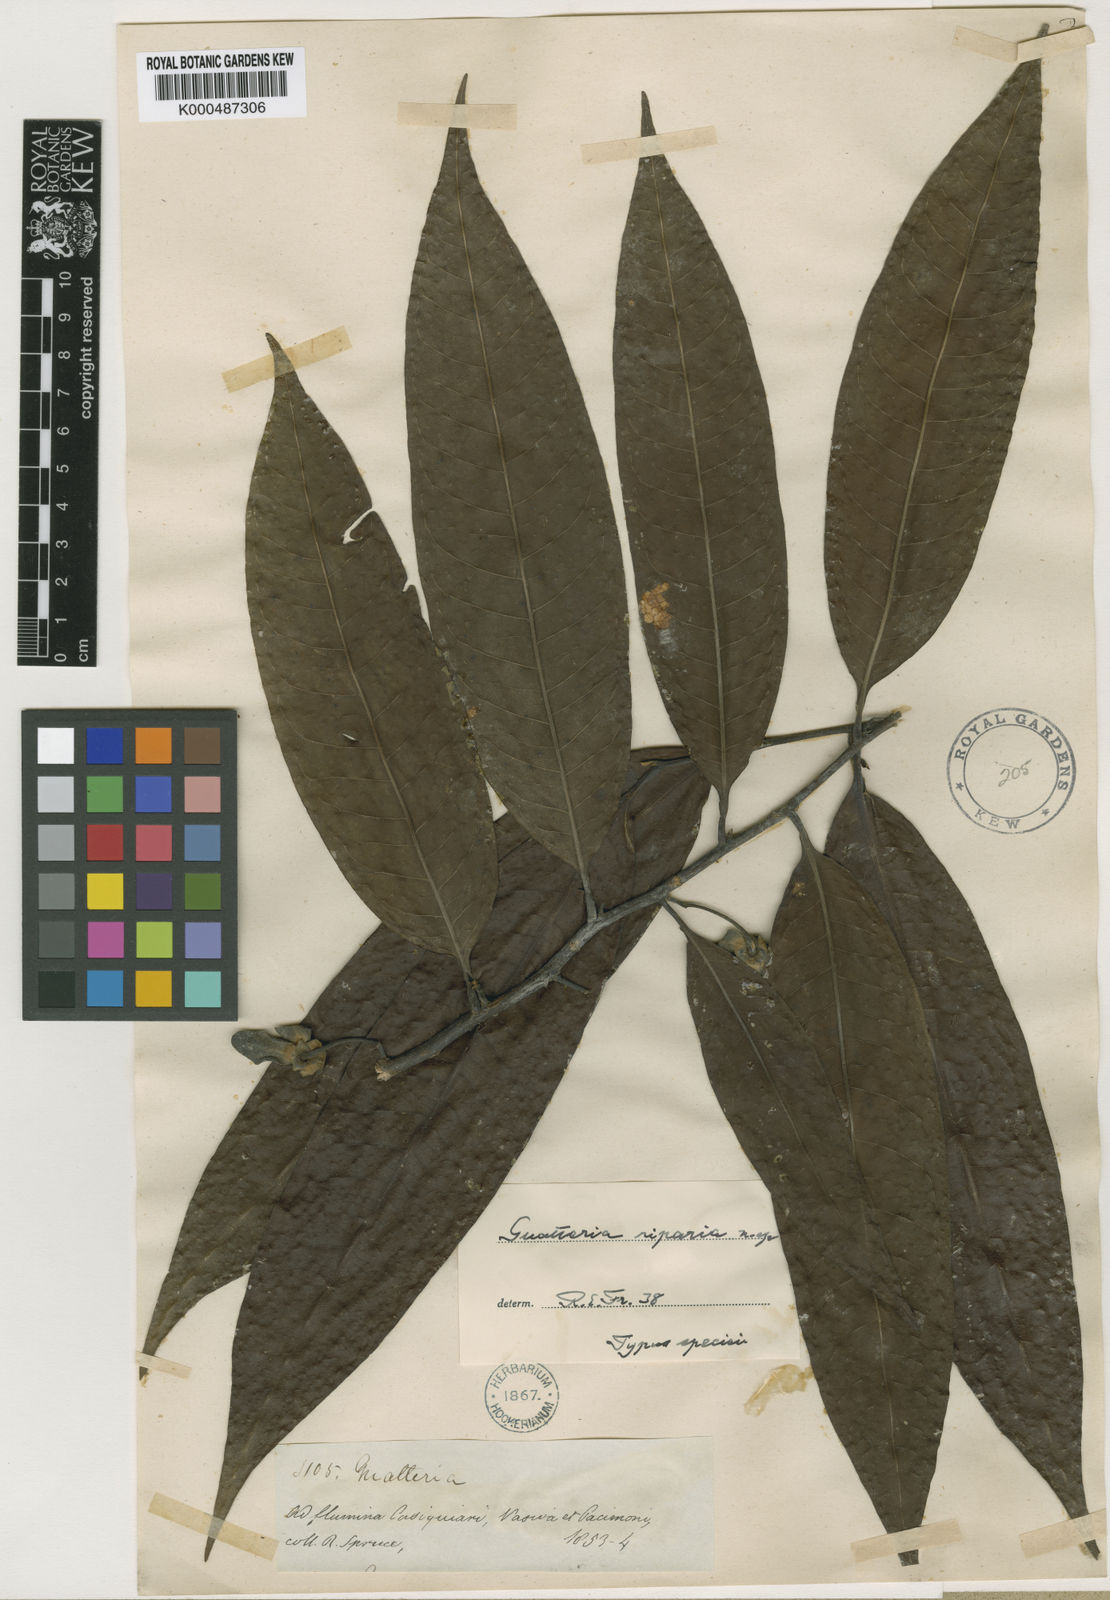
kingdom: Plantae
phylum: Tracheophyta
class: Magnoliopsida
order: Magnoliales
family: Annonaceae
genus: Guatteria
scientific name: Guatteria riparia
